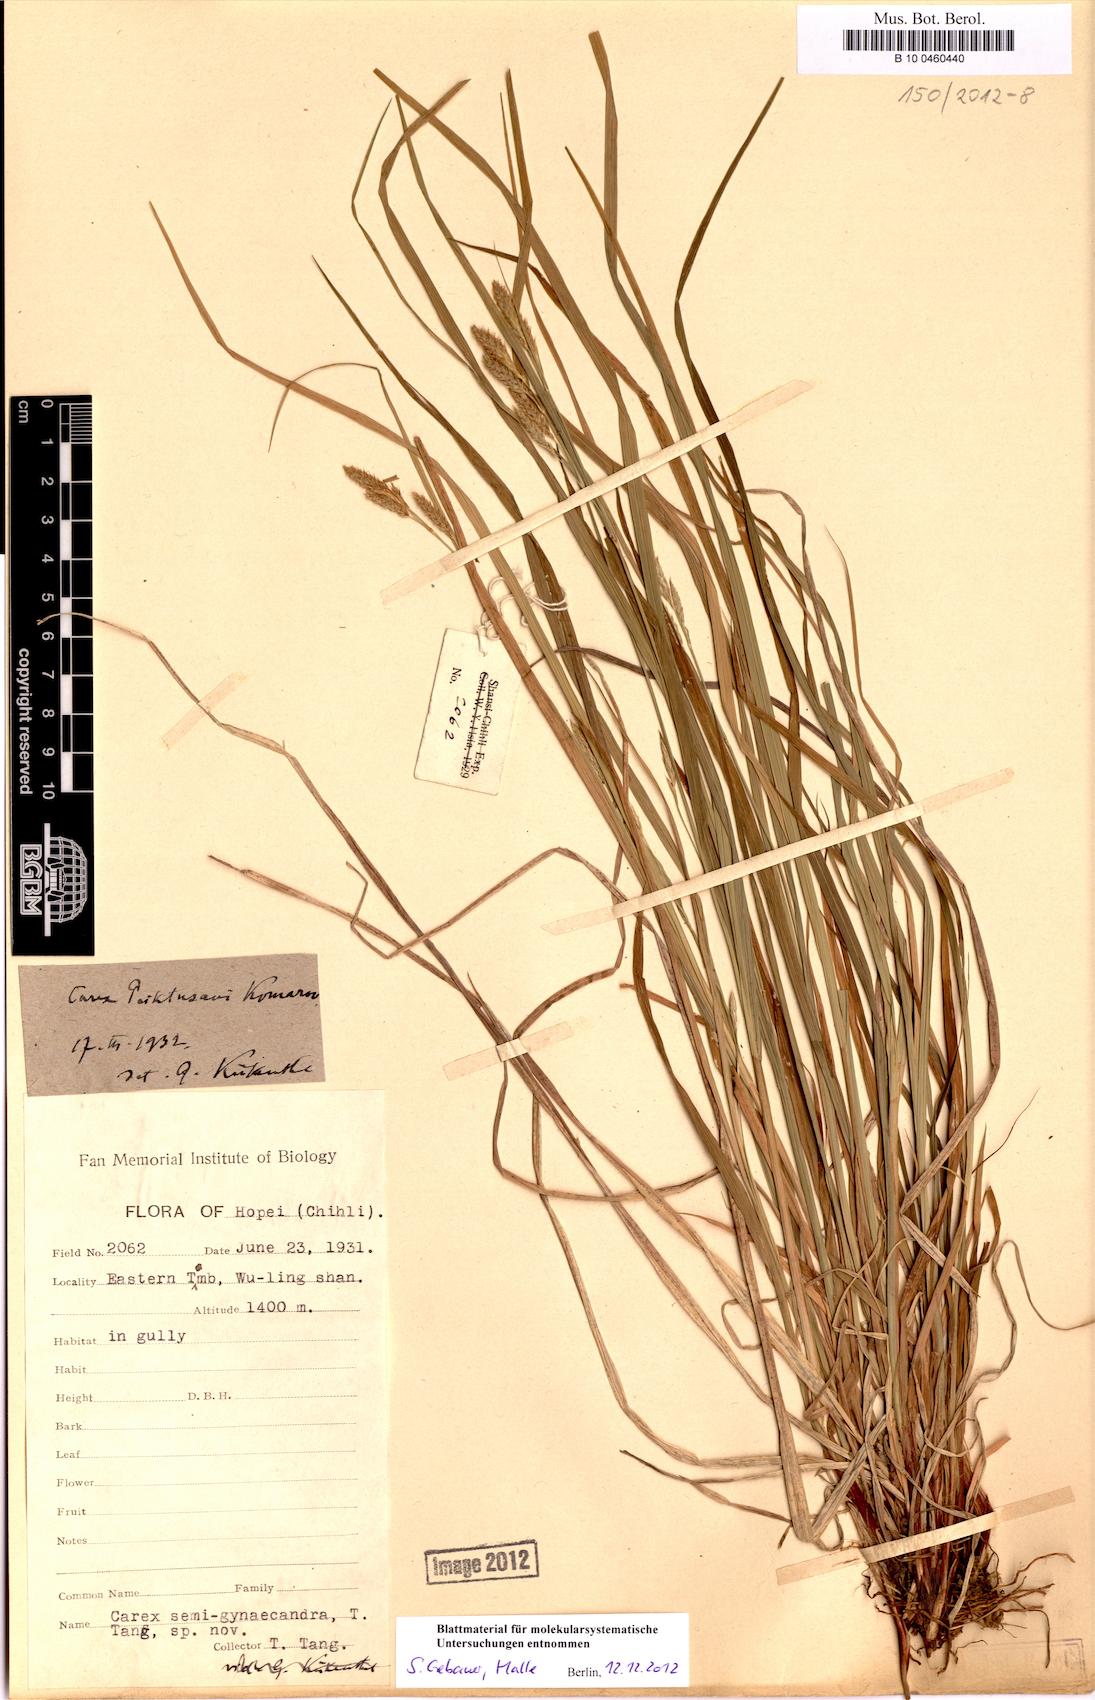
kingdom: Plantae
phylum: Tracheophyta
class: Liliopsida
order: Poales
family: Cyperaceae
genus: Carex
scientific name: Carex peiktusani
